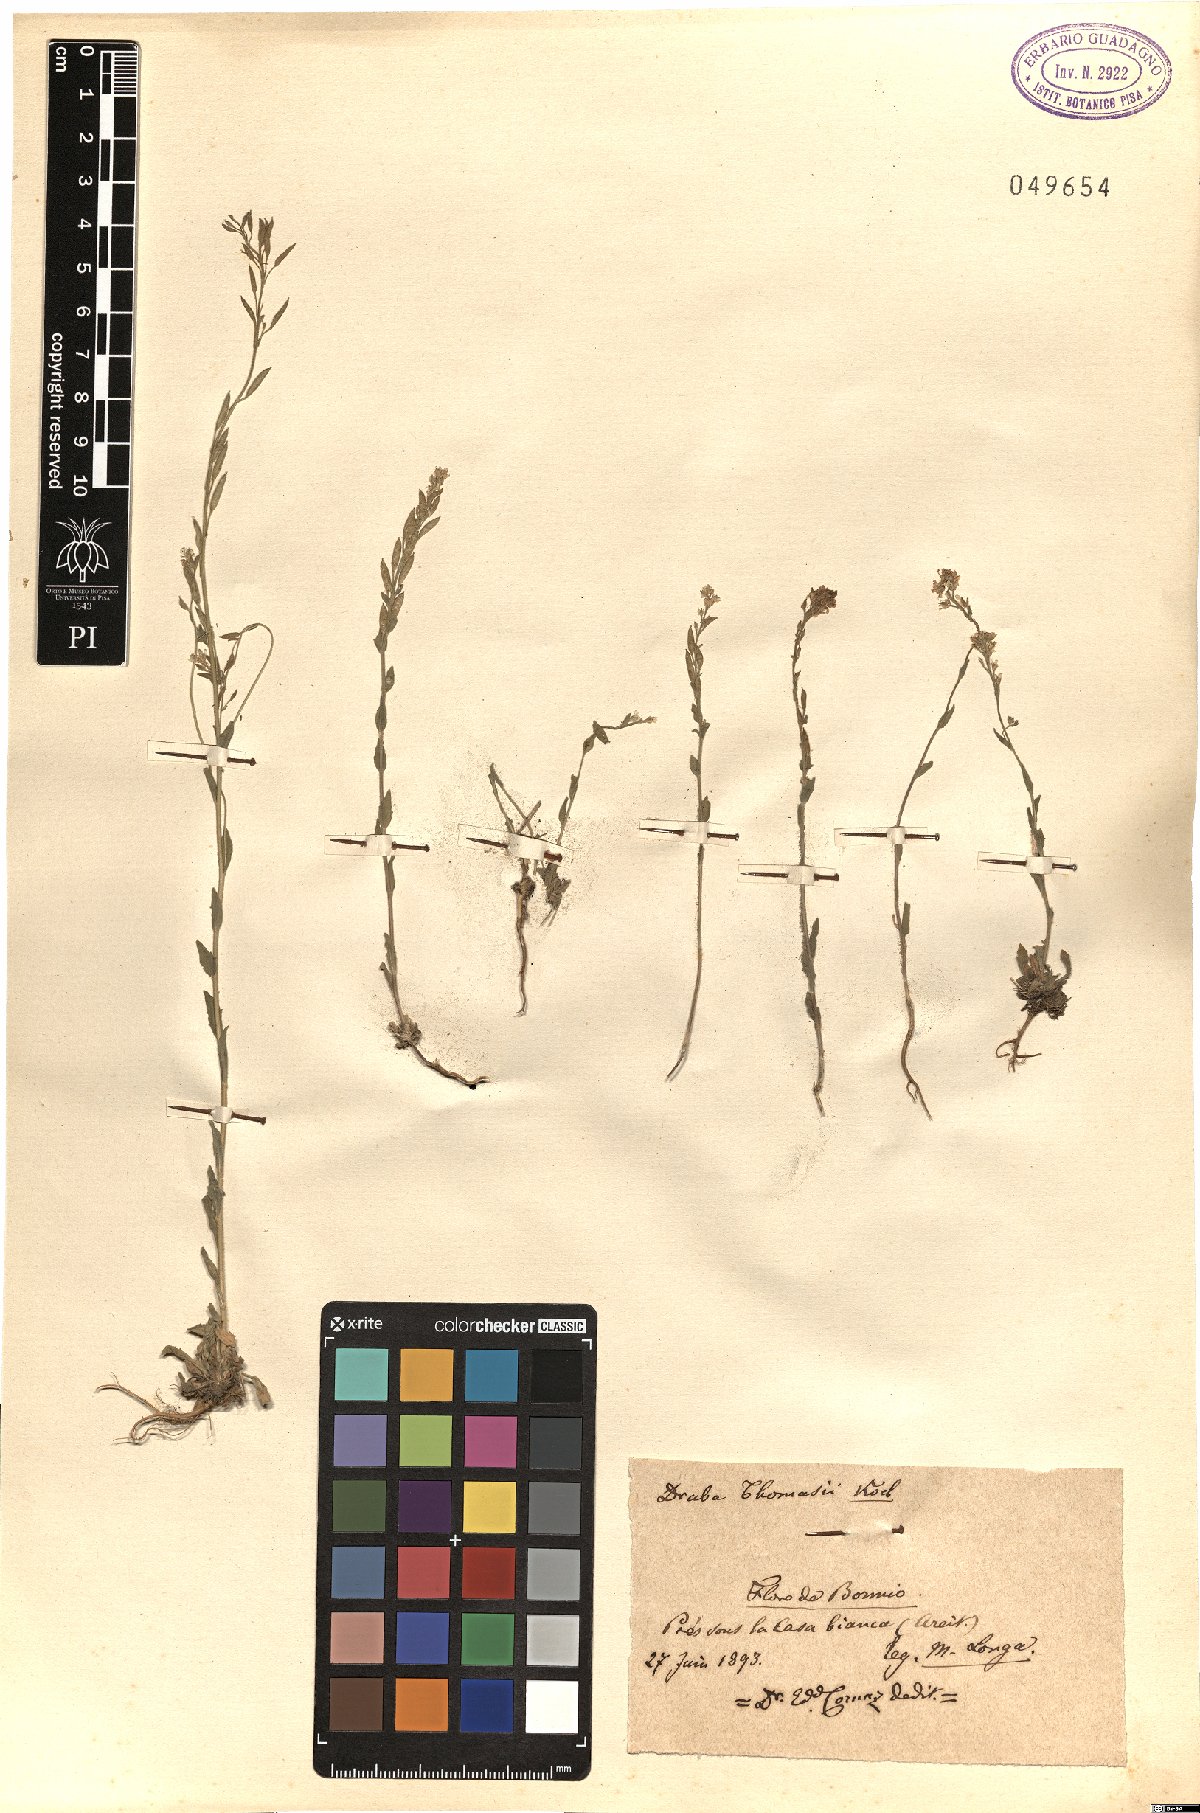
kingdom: Plantae
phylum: Tracheophyta
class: Magnoliopsida
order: Brassicales
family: Brassicaceae
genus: Draba
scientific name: Draba thomasii
